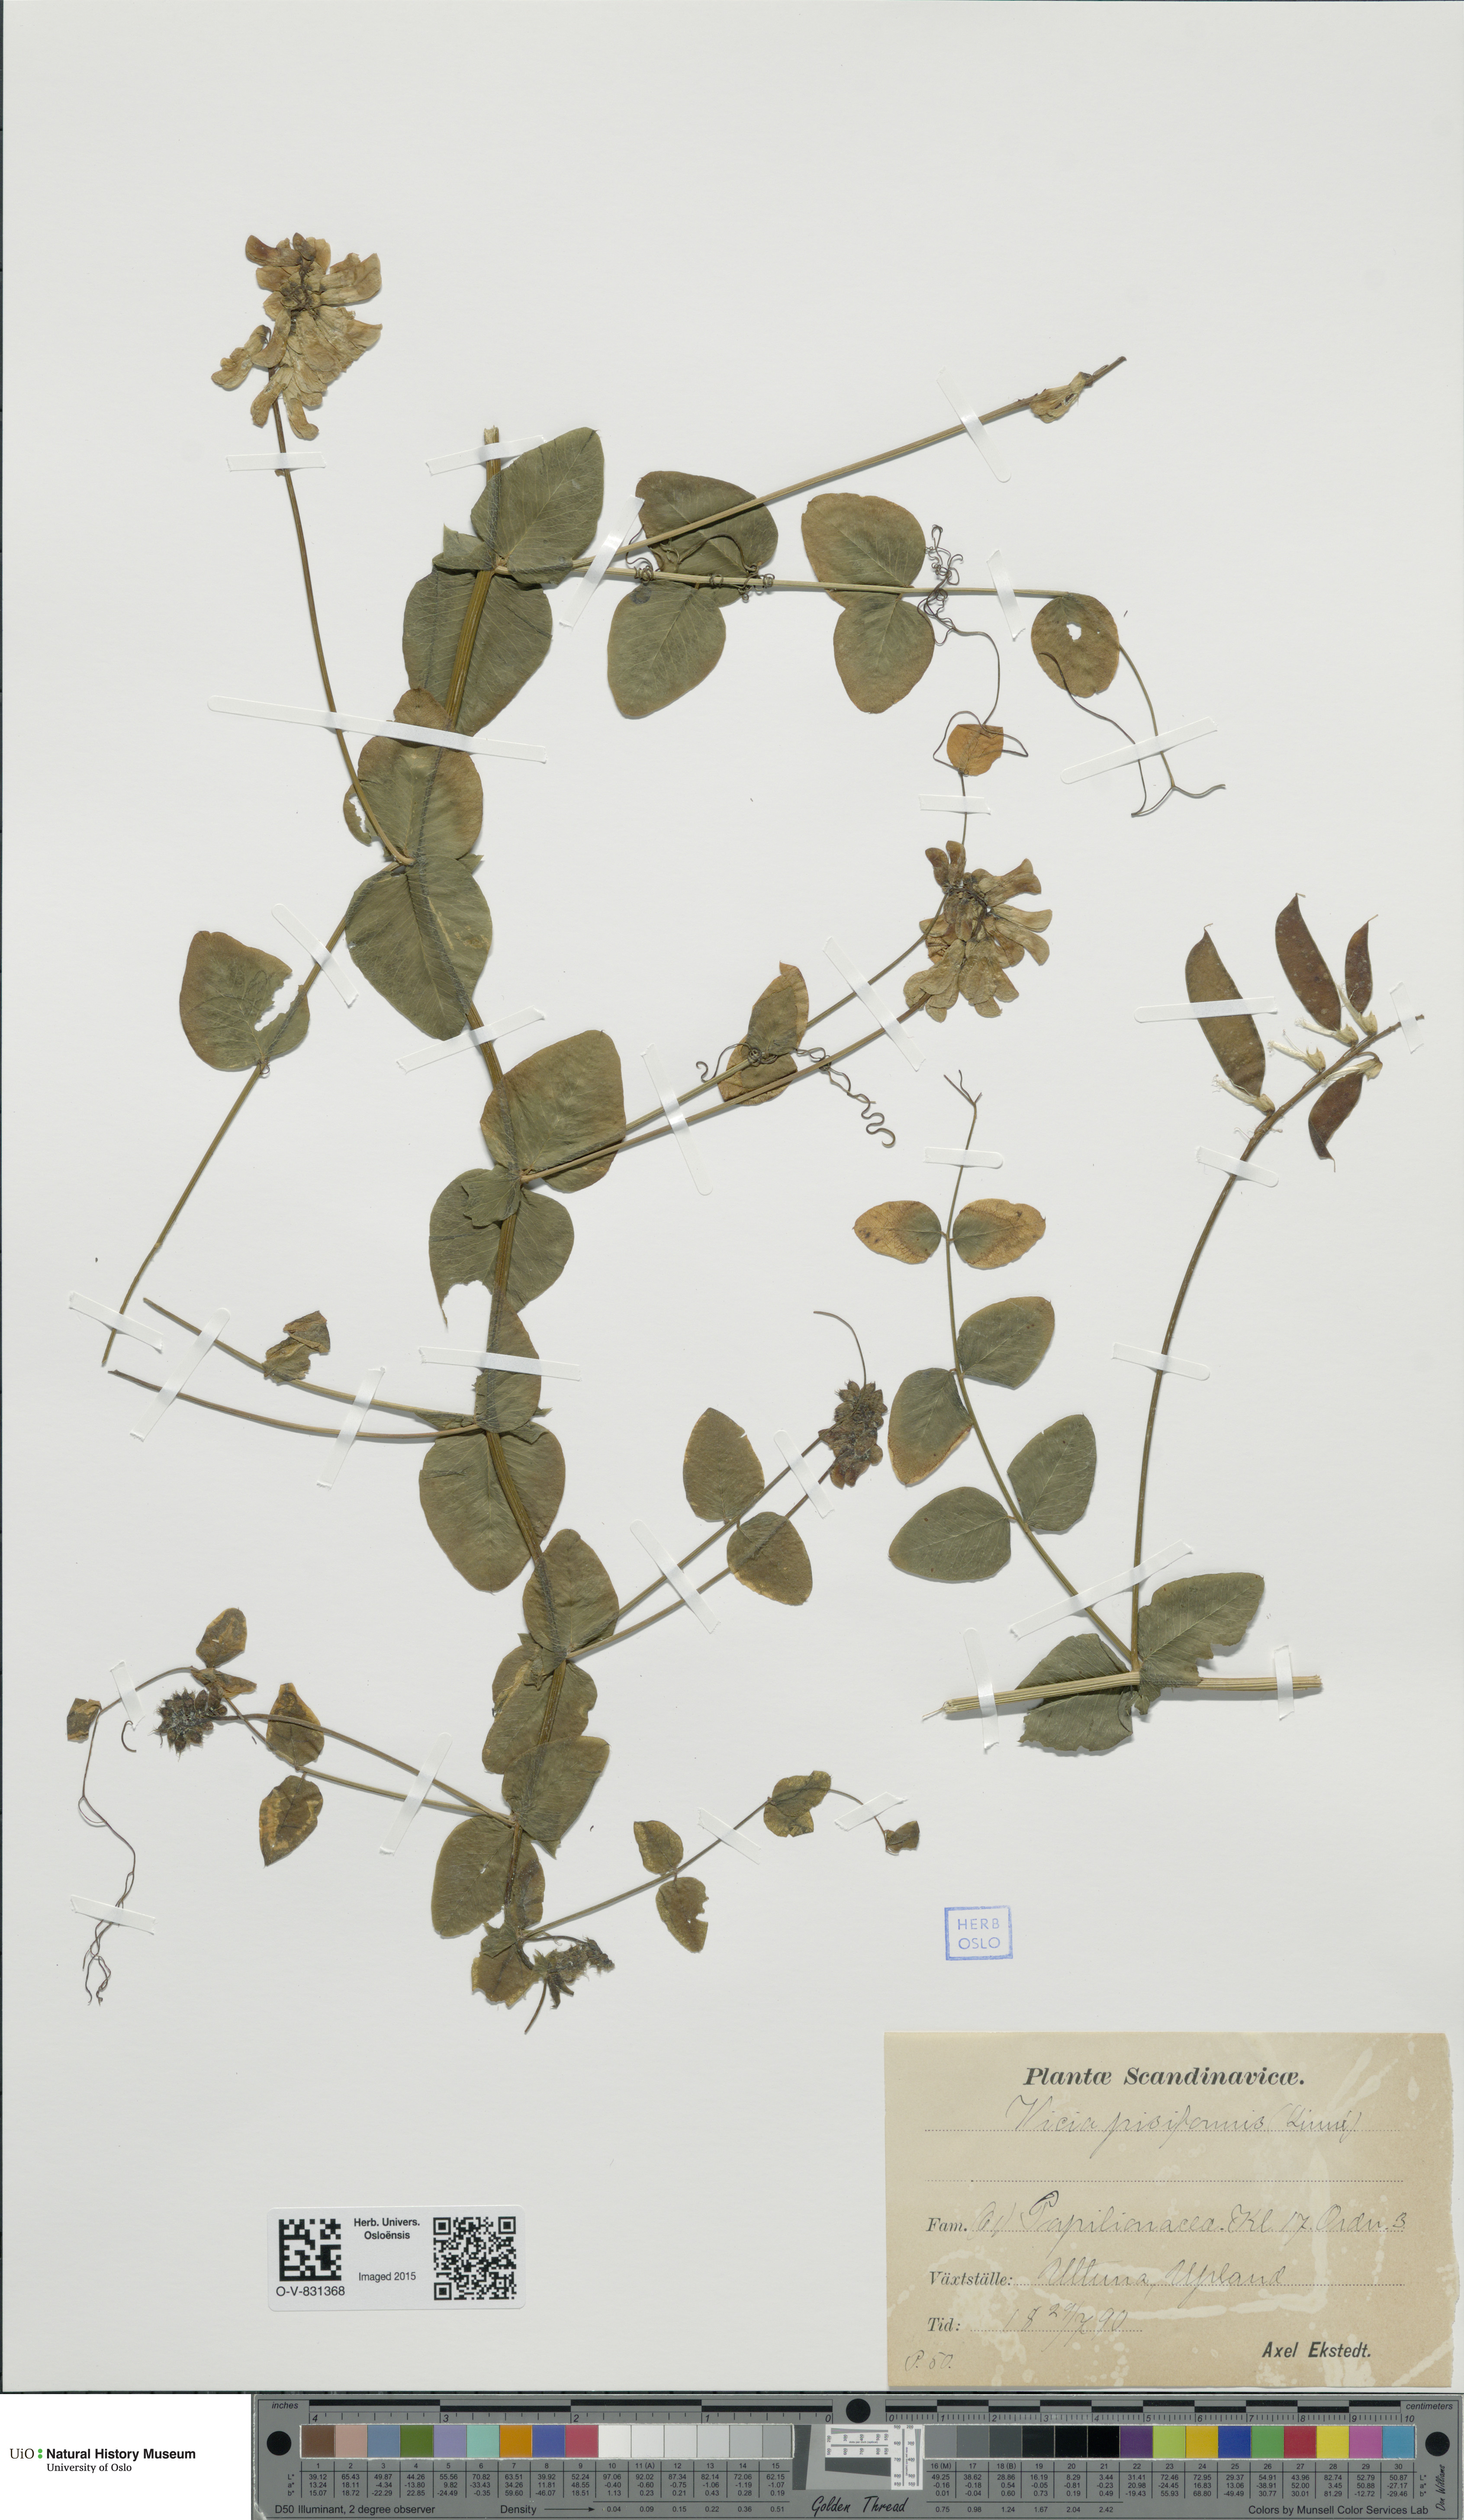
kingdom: Plantae
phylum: Tracheophyta
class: Magnoliopsida
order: Fabales
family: Fabaceae
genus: Vicia
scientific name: Vicia pisiformis
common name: Pale-flower vetch
